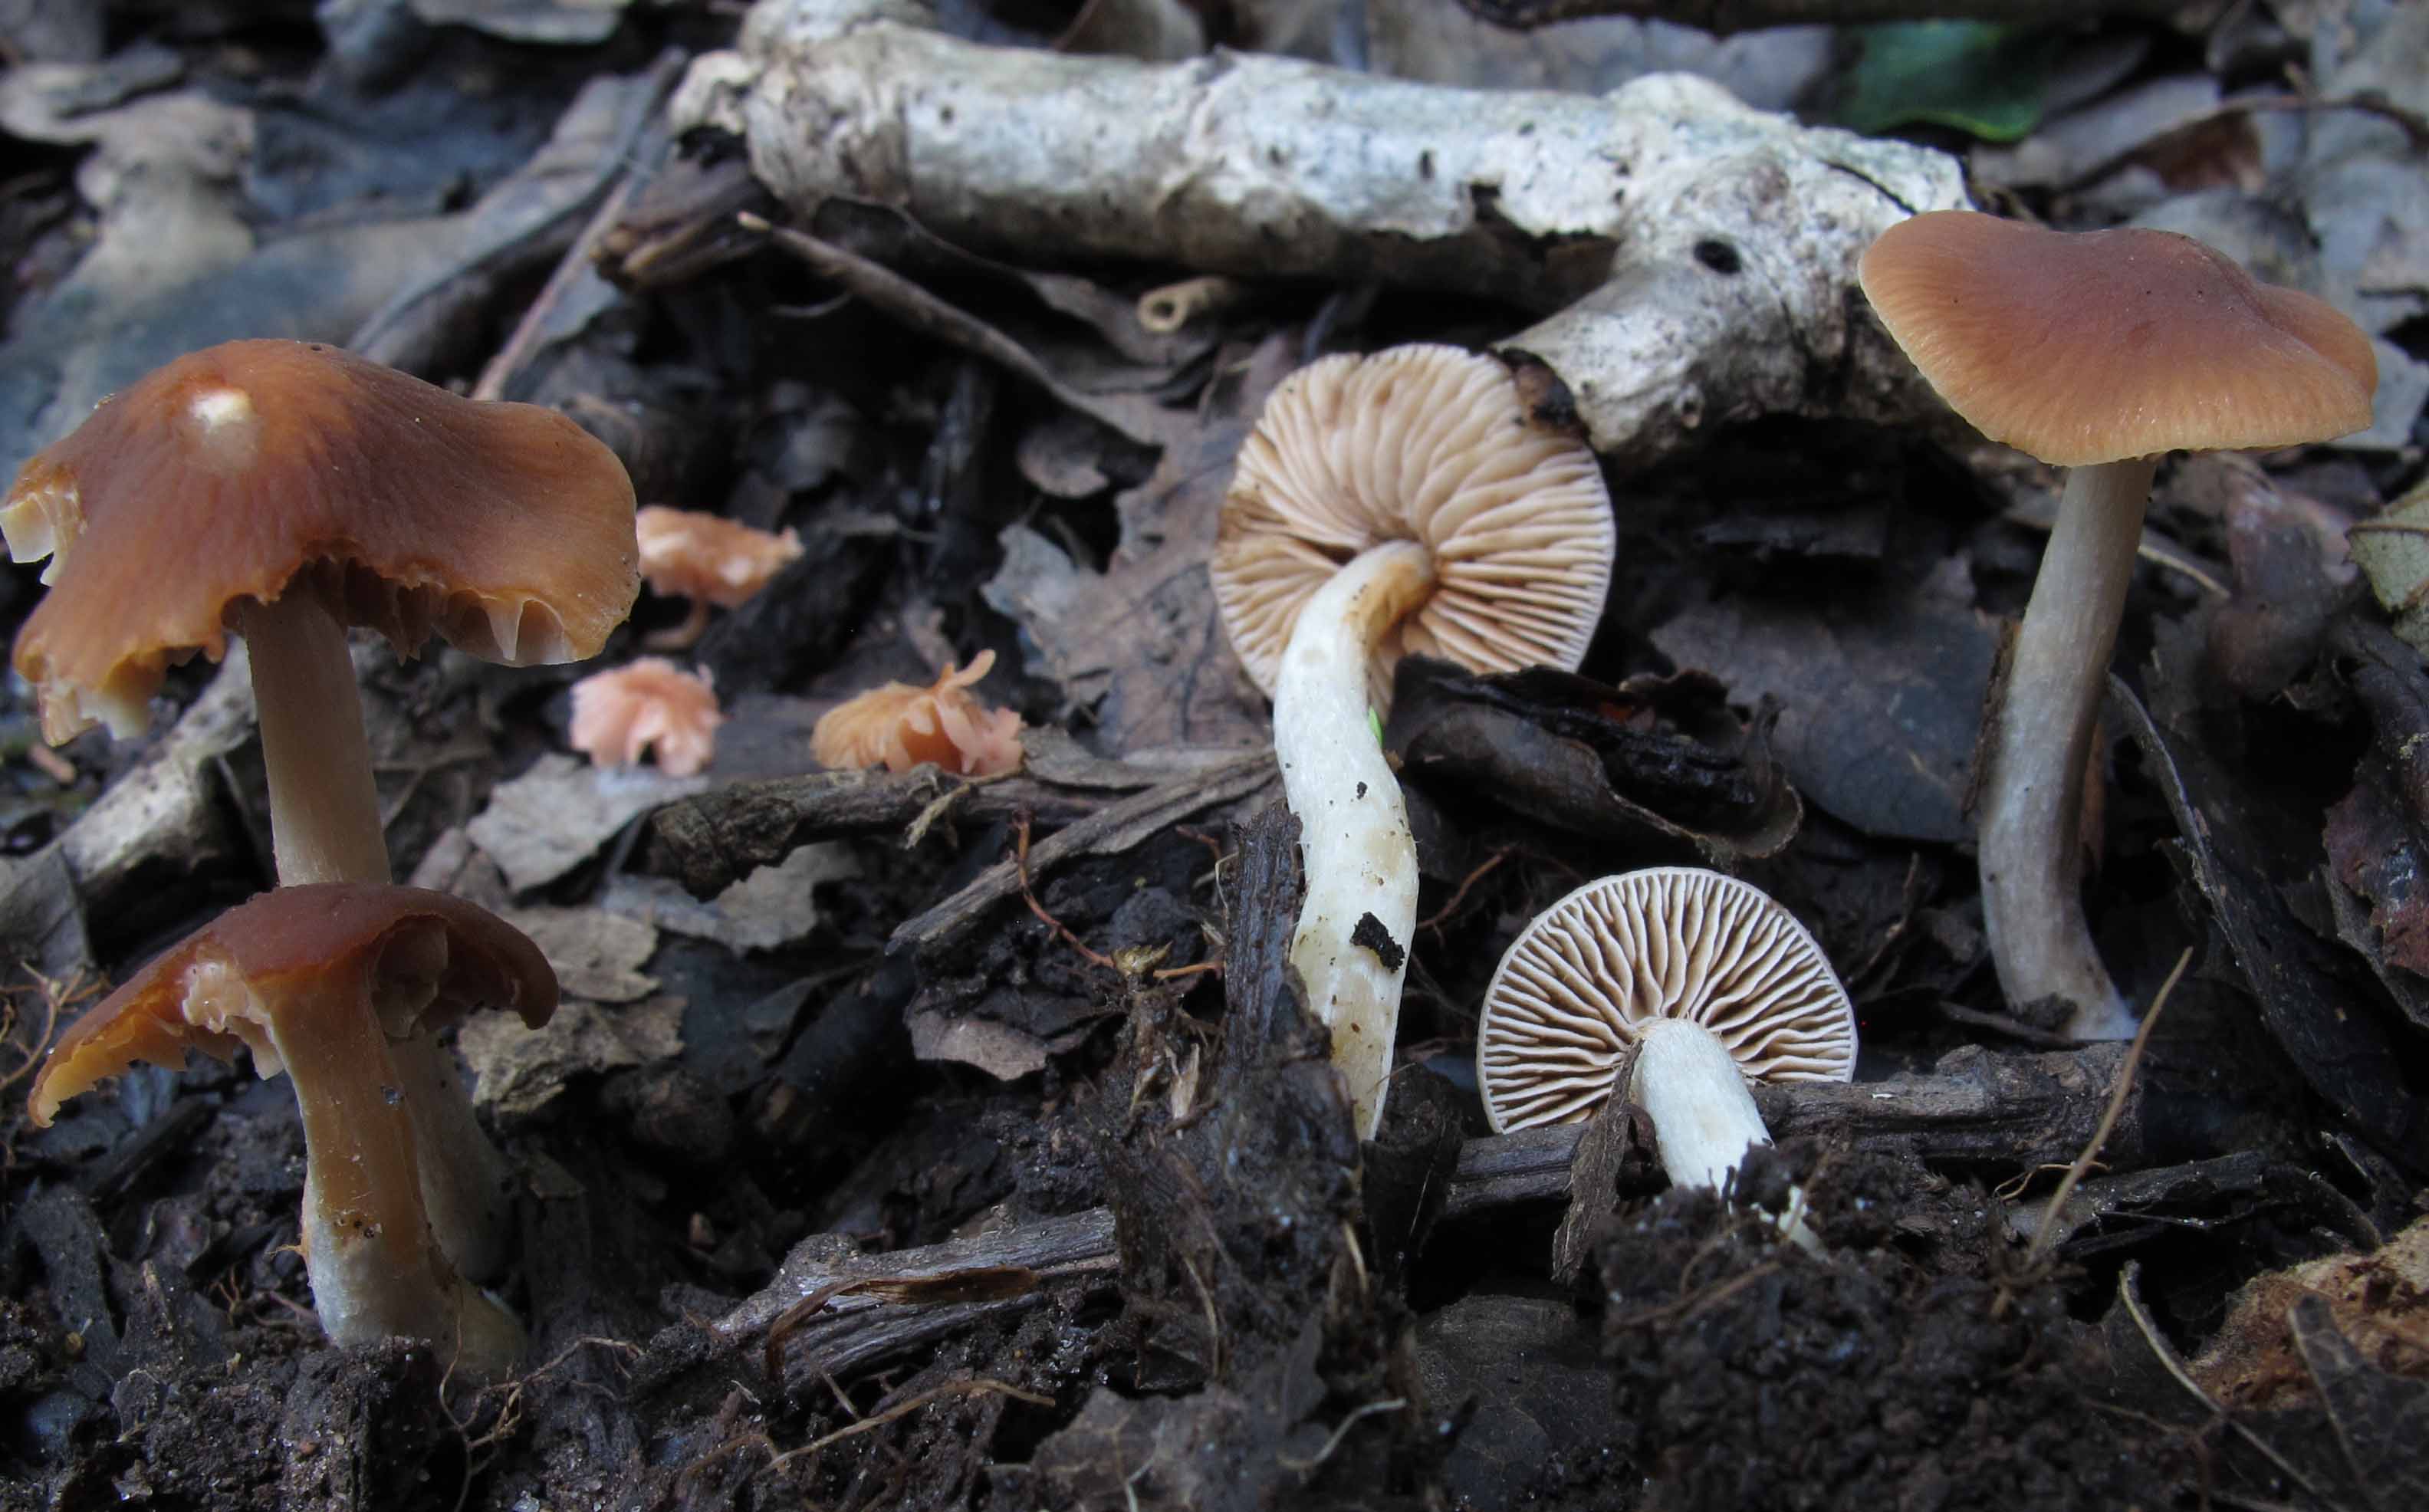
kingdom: Fungi
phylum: Basidiomycota
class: Agaricomycetes
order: Agaricales
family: Hymenogastraceae
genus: Naucoria
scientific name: Naucoria salicis
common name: pile-knaphat
